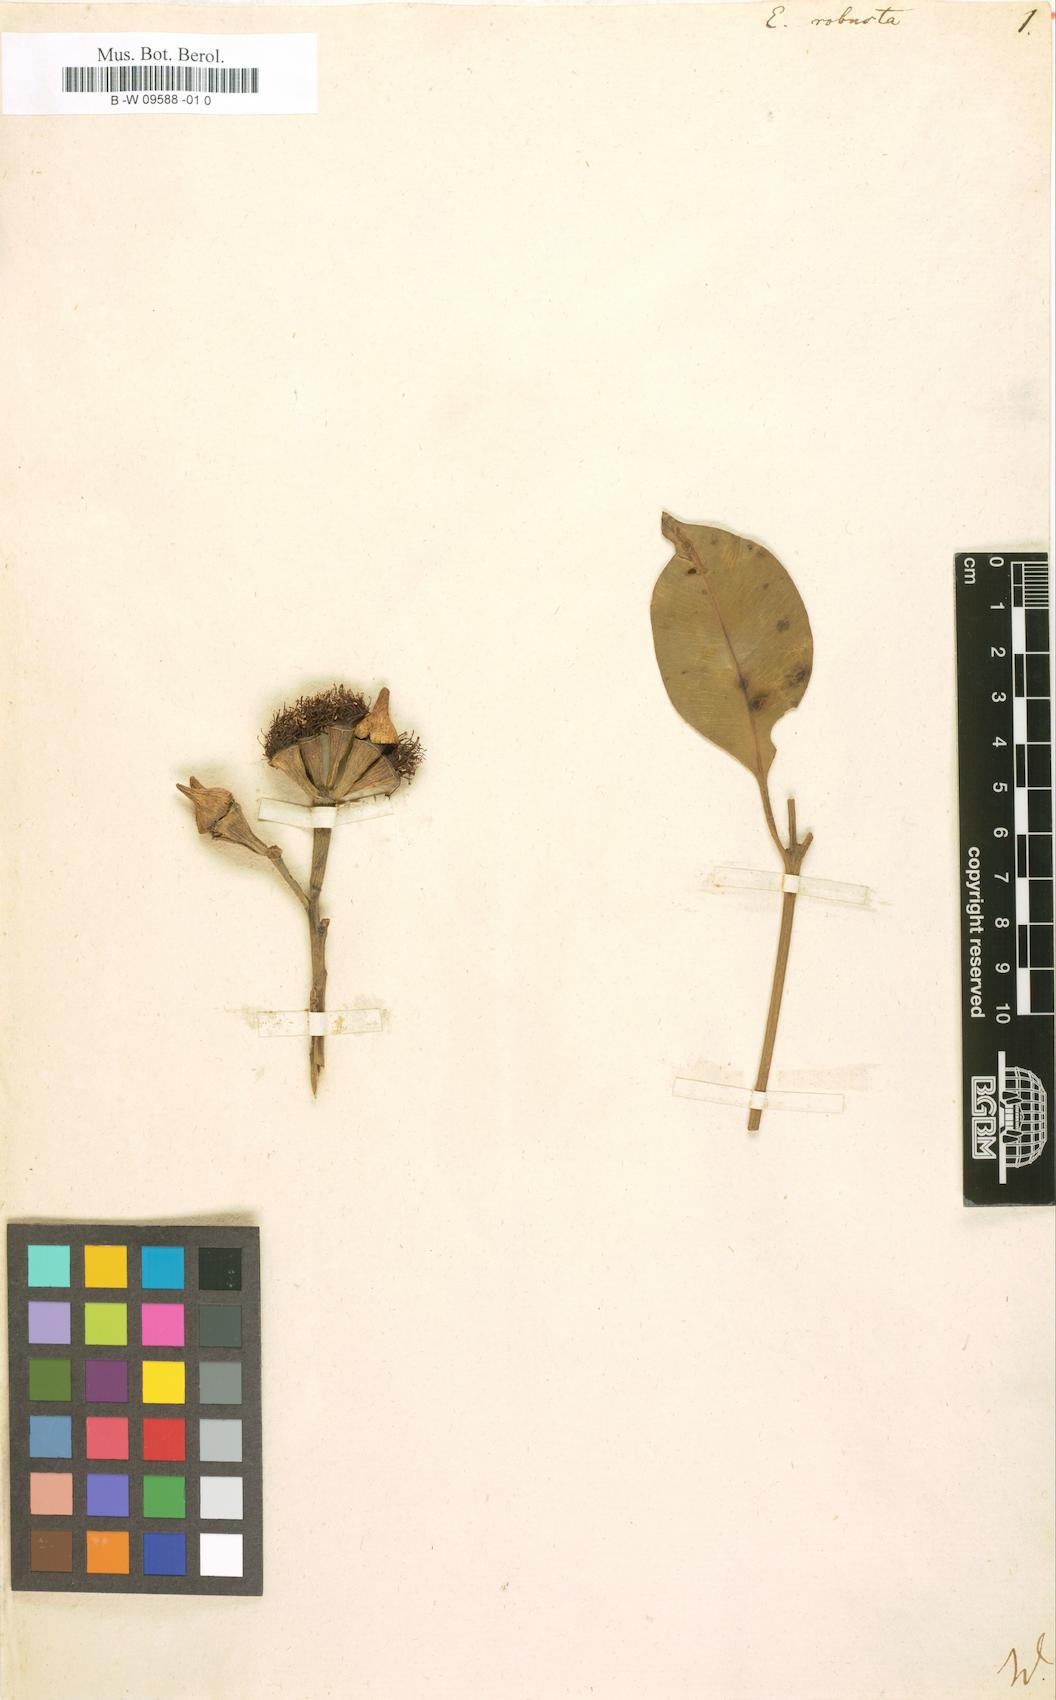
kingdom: Plantae
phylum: Tracheophyta
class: Magnoliopsida
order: Myrtales
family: Myrtaceae
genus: Eucalyptus
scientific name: Eucalyptus robusta
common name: Swampmahogany
